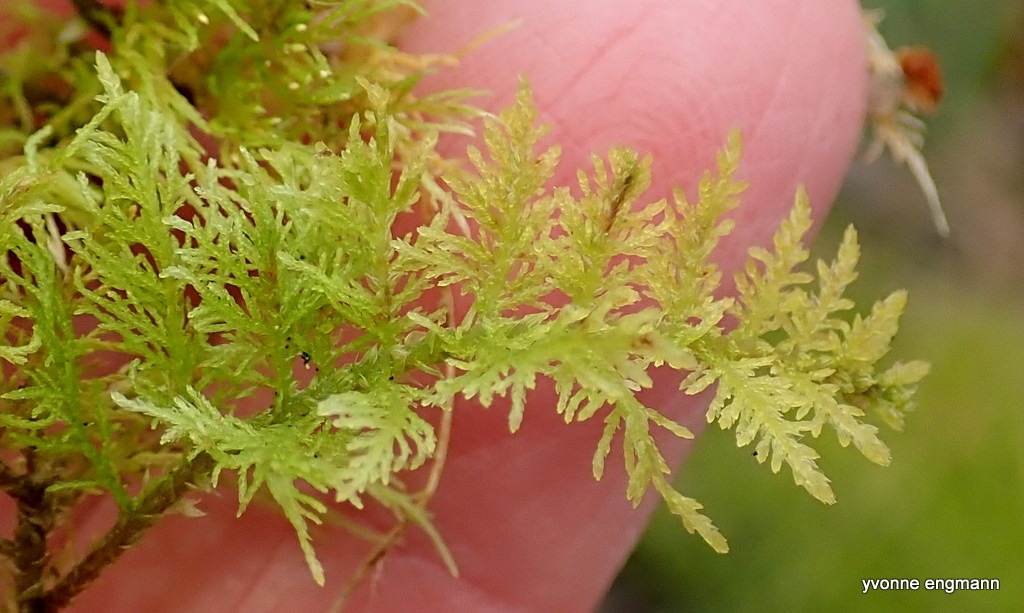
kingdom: Plantae
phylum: Bryophyta
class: Bryopsida
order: Hypnales
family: Thuidiaceae
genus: Thuidium
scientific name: Thuidium tamariscinum
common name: Pryd-bregnemos
